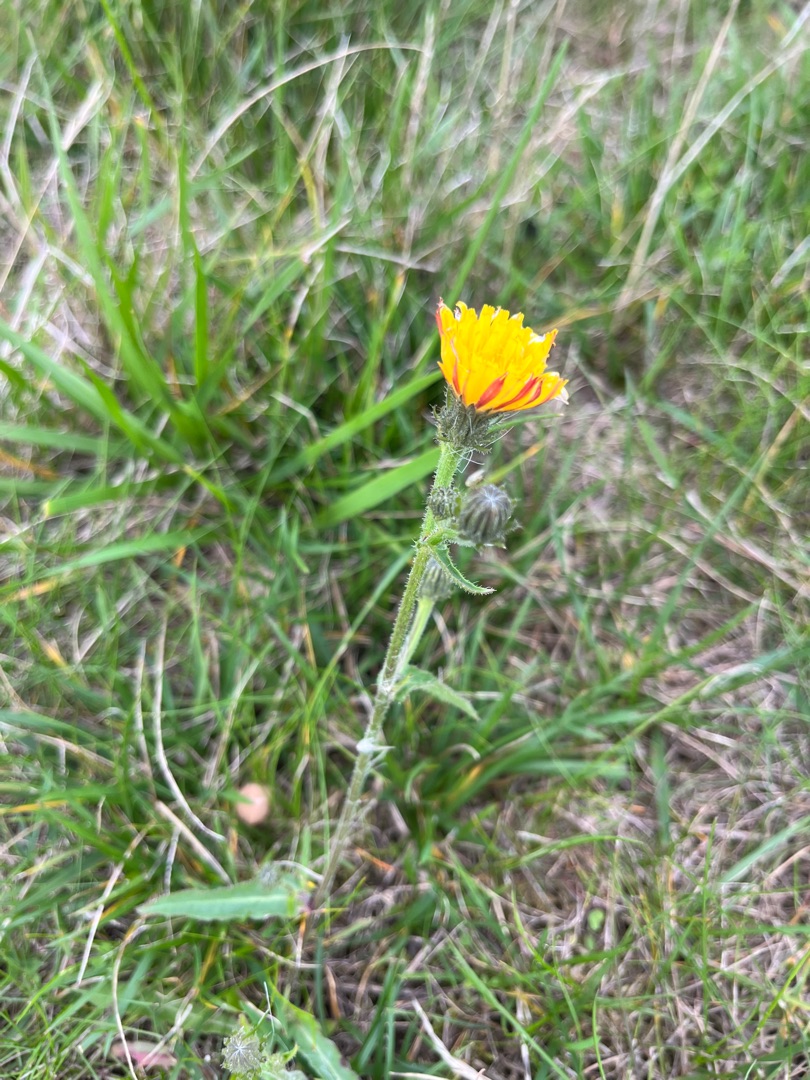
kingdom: Plantae
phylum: Tracheophyta
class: Magnoliopsida
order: Asterales
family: Asteraceae
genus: Picris
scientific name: Picris hieracioides
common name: Ru bittermælk
